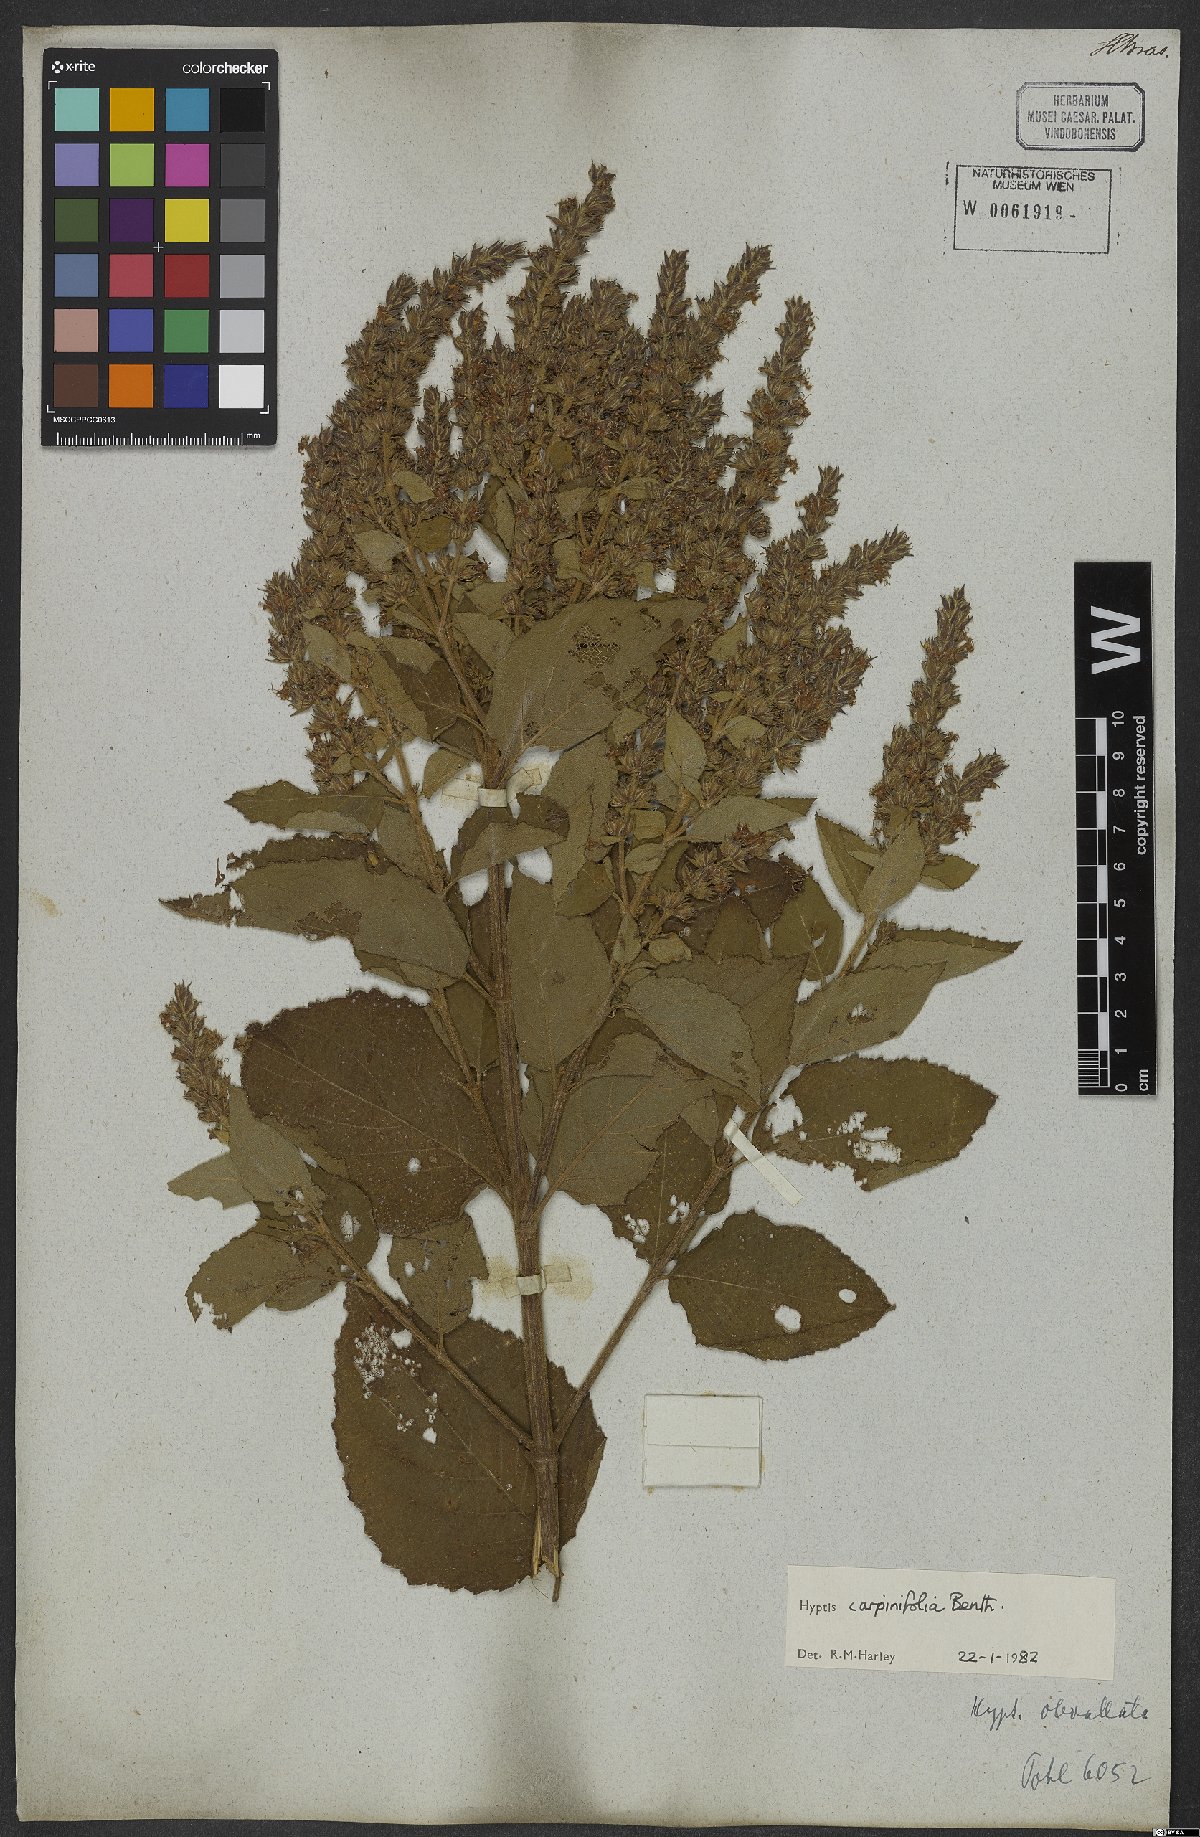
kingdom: Plantae
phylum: Tracheophyta
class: Magnoliopsida
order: Lamiales
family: Lamiaceae
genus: Cantinoa
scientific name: Cantinoa carpinifolia
